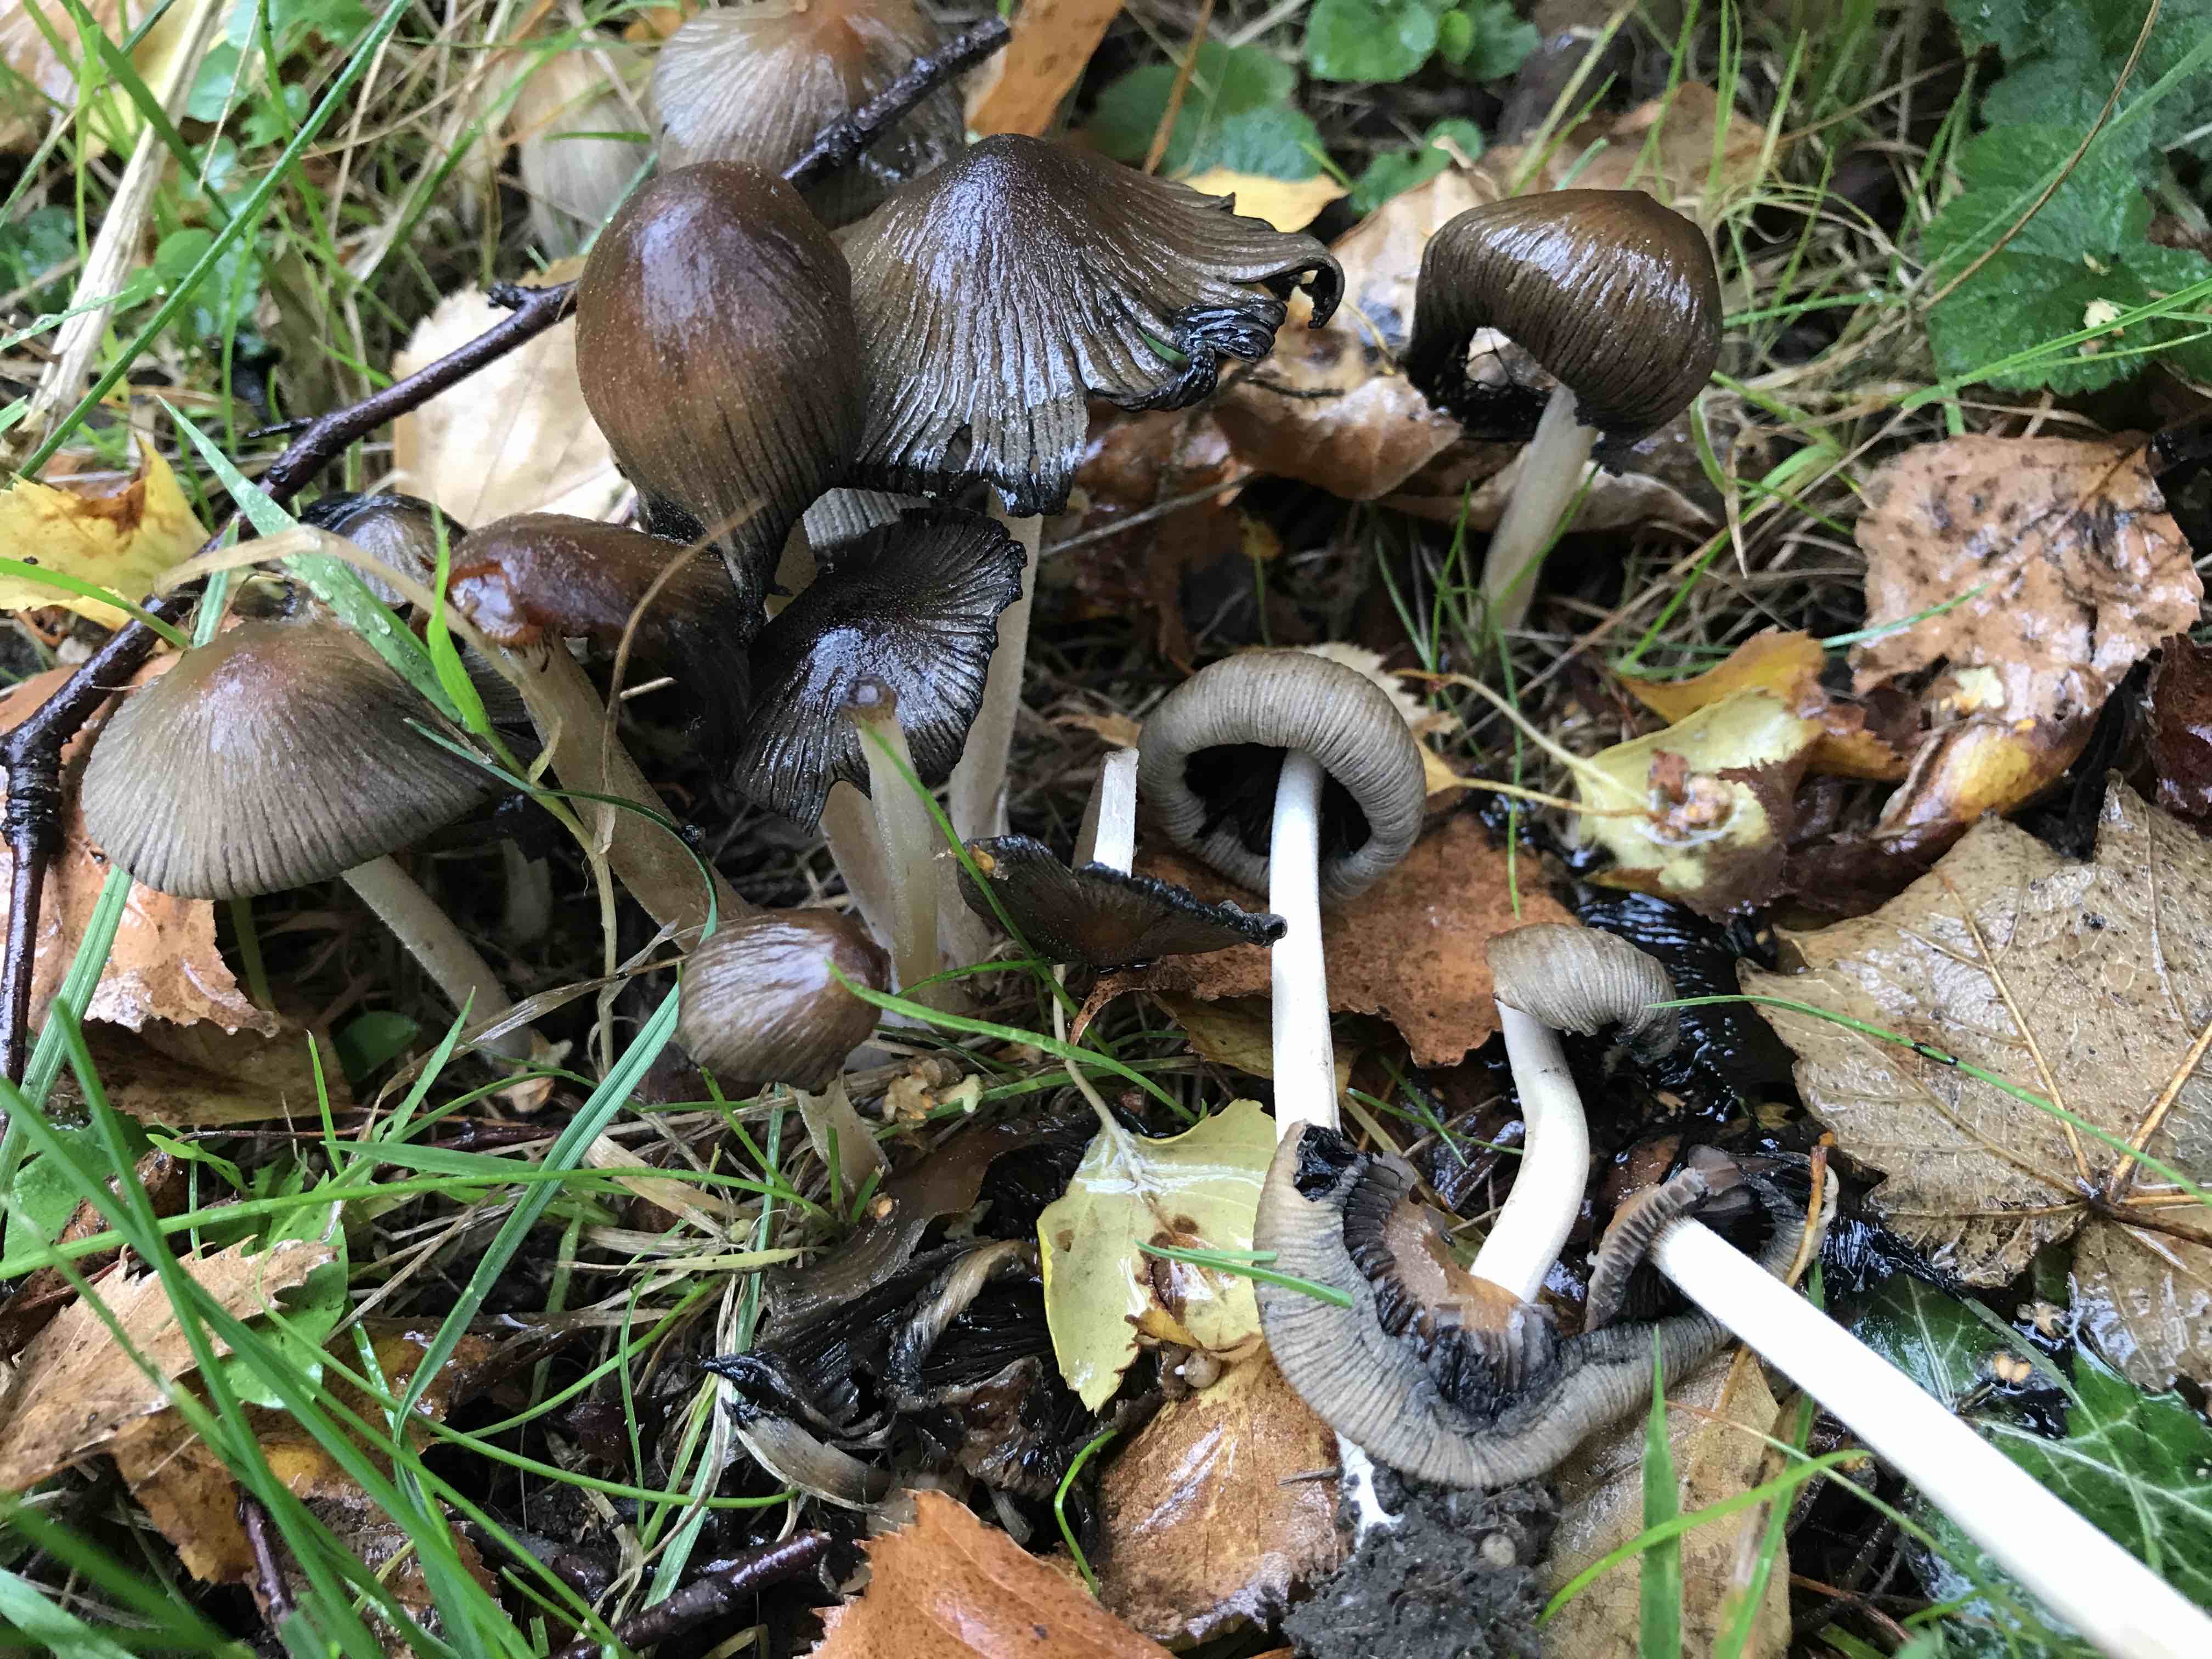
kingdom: Fungi
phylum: Basidiomycota
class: Agaricomycetes
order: Agaricales
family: Psathyrellaceae
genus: Coprinellus
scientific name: Coprinellus micaceus
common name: glimmer-blækhat
